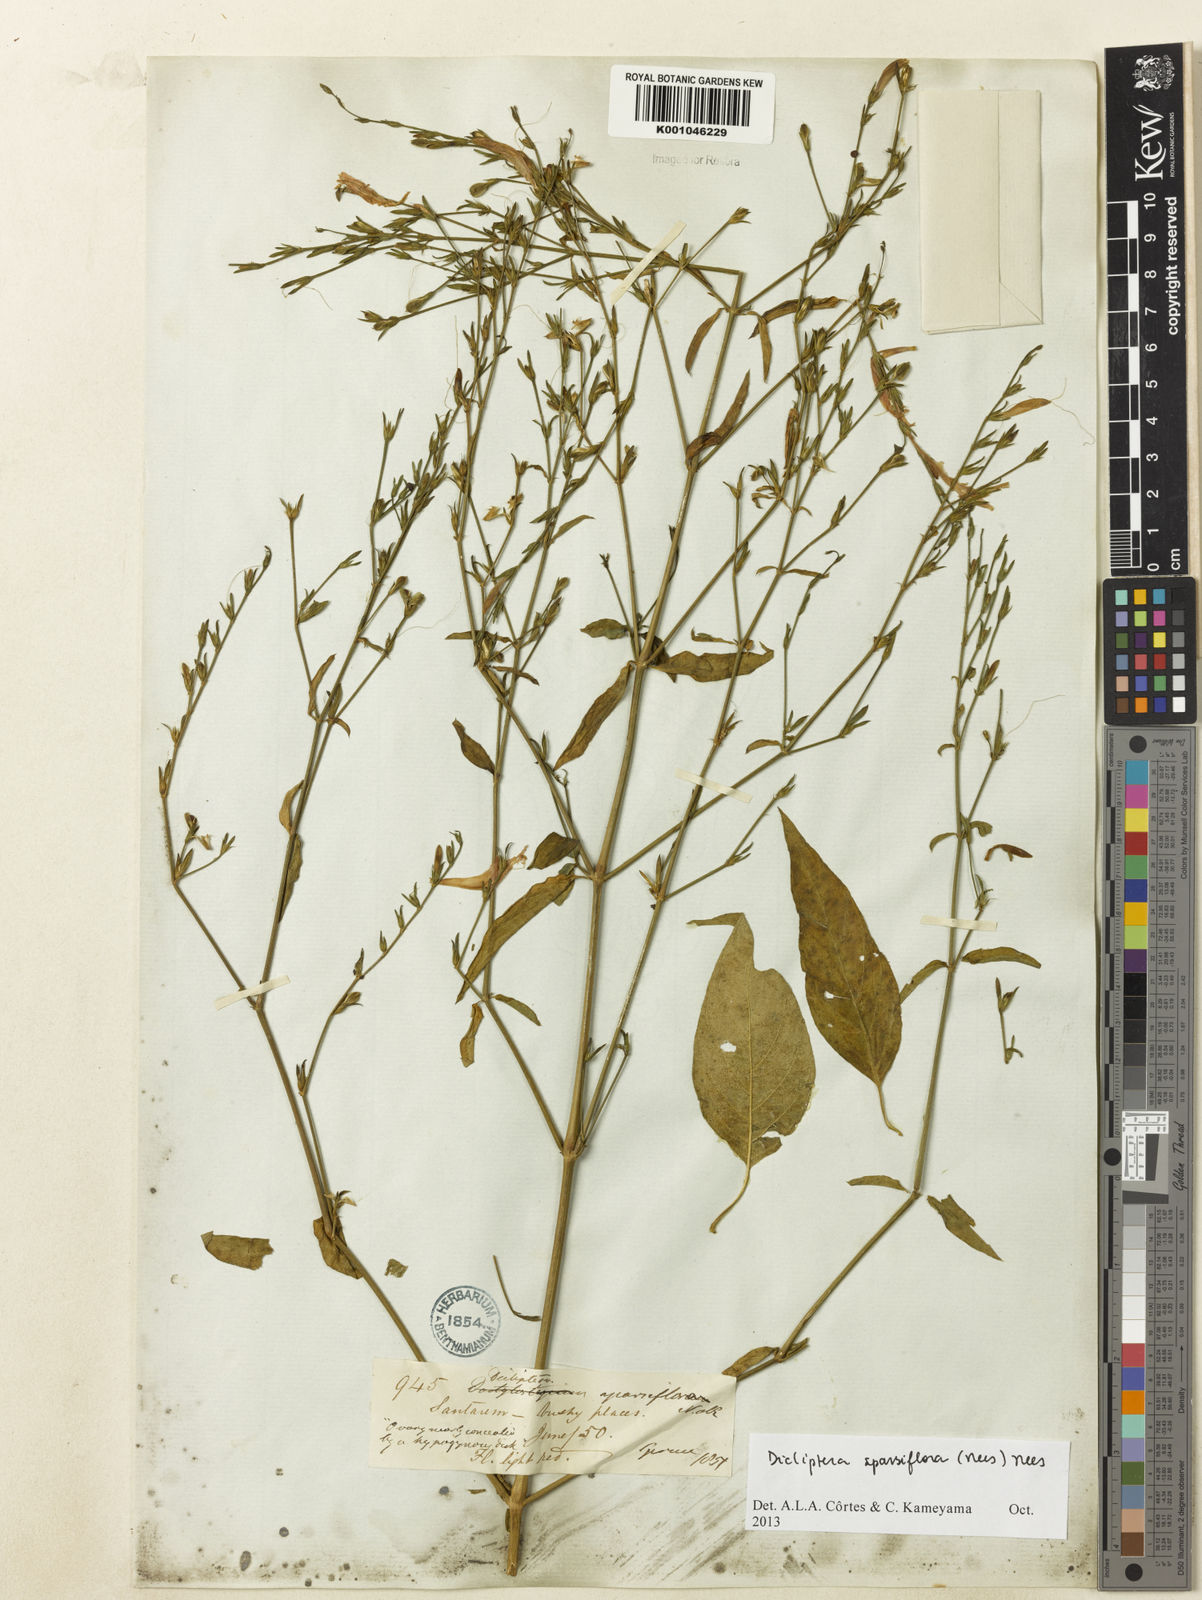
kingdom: Plantae
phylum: Tracheophyta
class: Magnoliopsida
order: Lamiales
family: Acanthaceae
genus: Dicliptera
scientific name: Dicliptera sparsiflora
